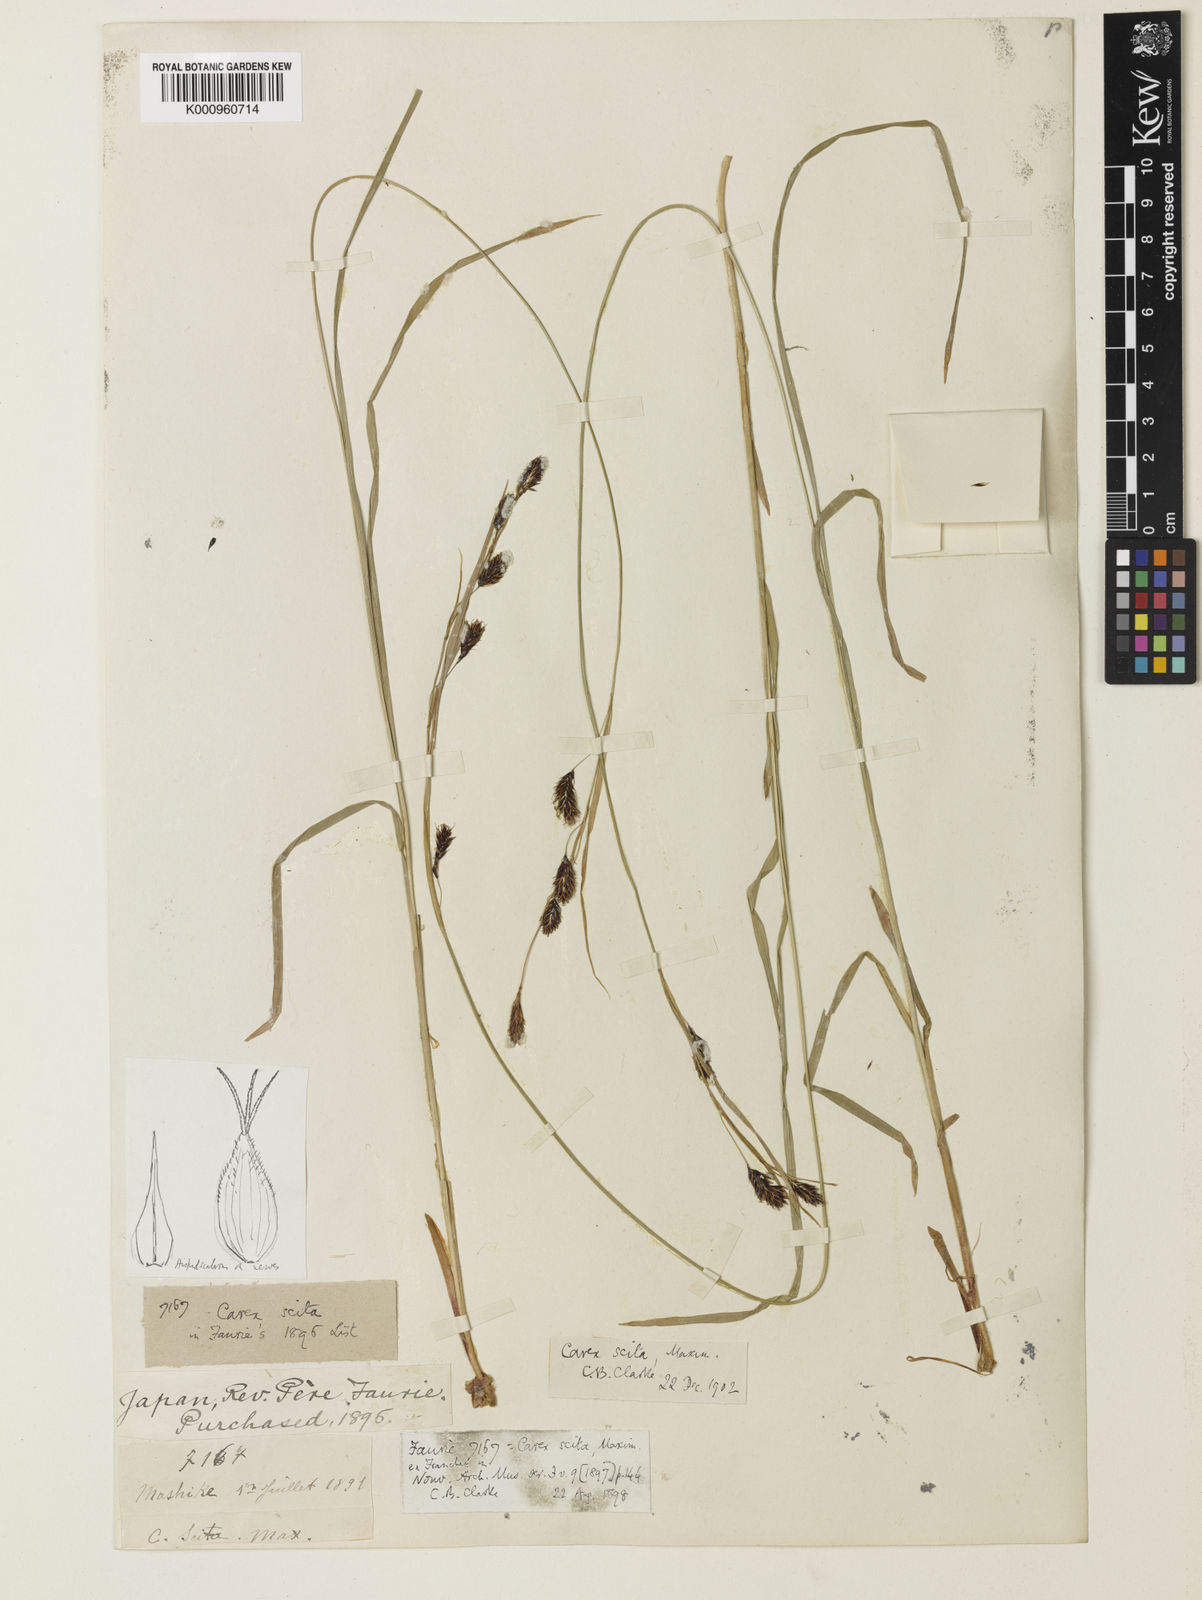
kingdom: Plantae
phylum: Tracheophyta
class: Liliopsida
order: Poales
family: Cyperaceae
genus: Carex
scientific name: Carex scita
